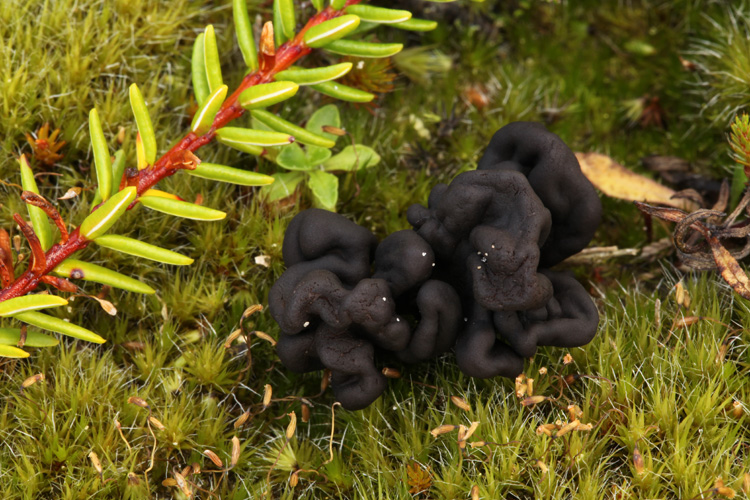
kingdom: Fungi
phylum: Ascomycota
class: Geoglossomycetes
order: Geoglossales
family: Geoglossaceae
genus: Sabuloglossum
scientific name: Sabuloglossum arenarium
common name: klit-jordtunge
